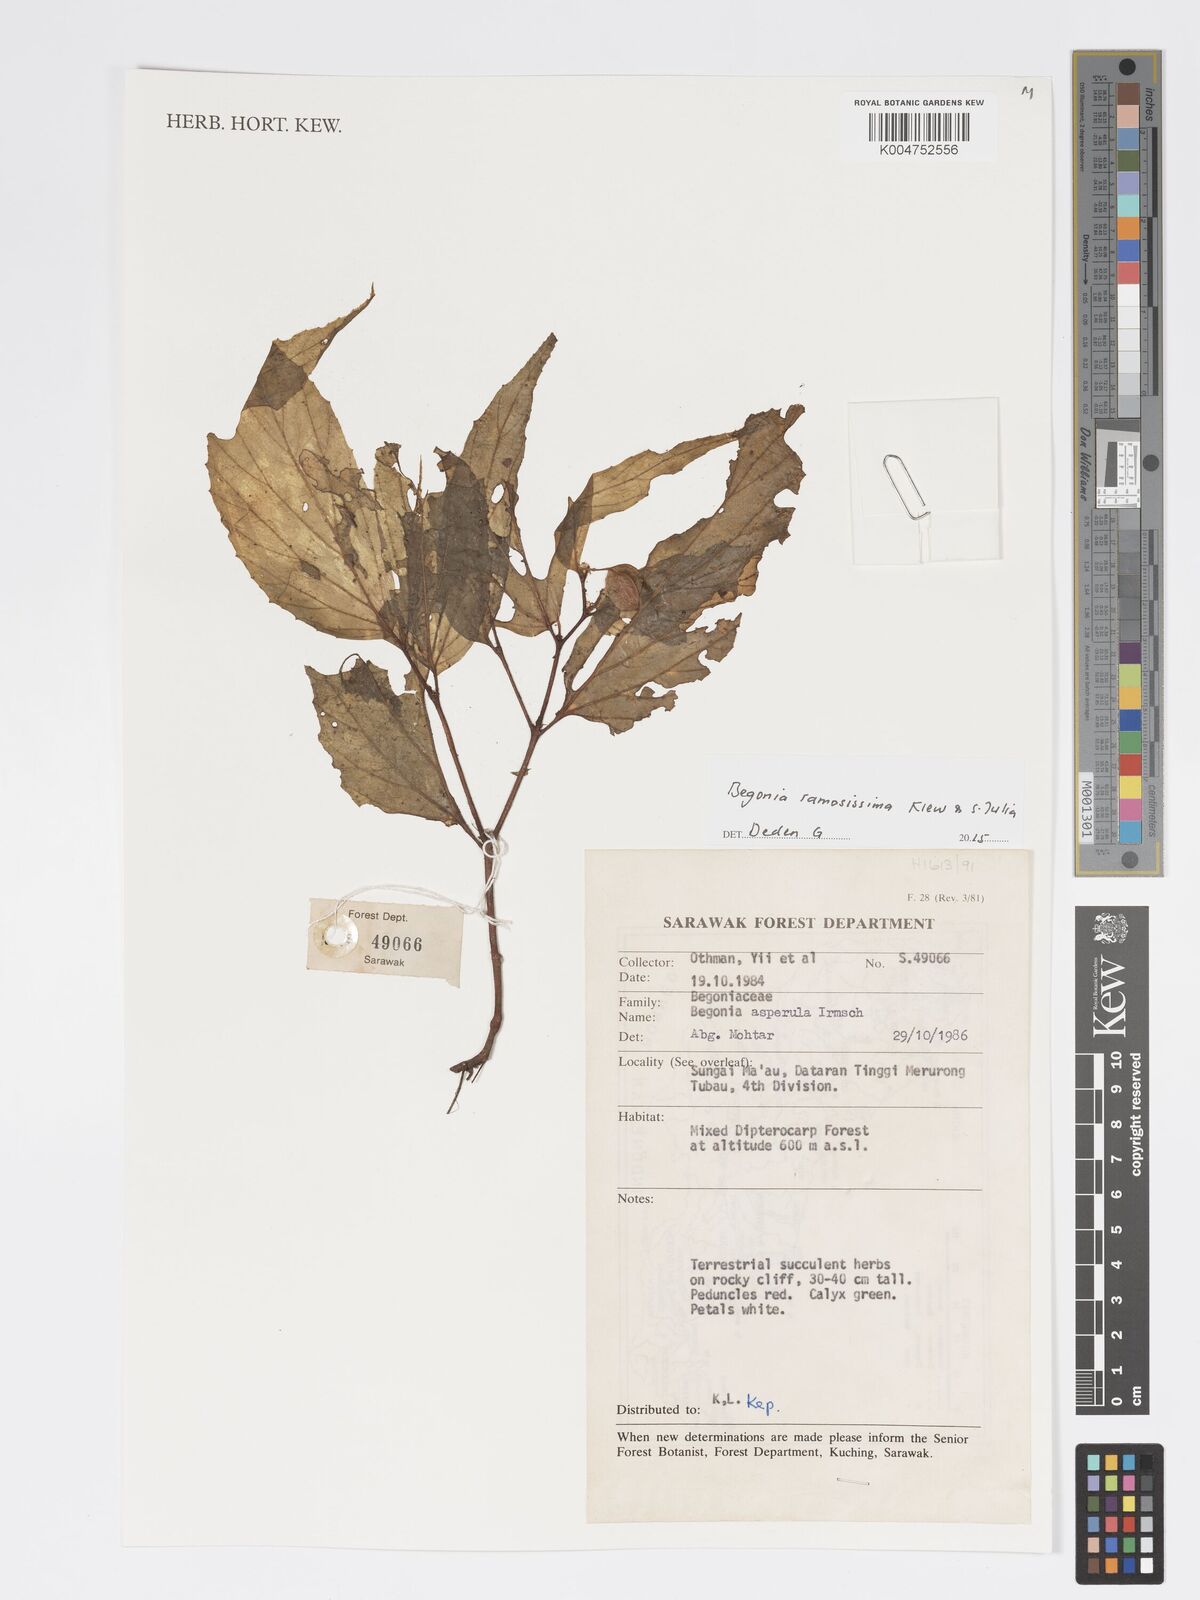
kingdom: Plantae
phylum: Tracheophyta
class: Magnoliopsida
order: Cucurbitales
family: Begoniaceae
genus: Begonia
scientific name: Begonia ramosissima
